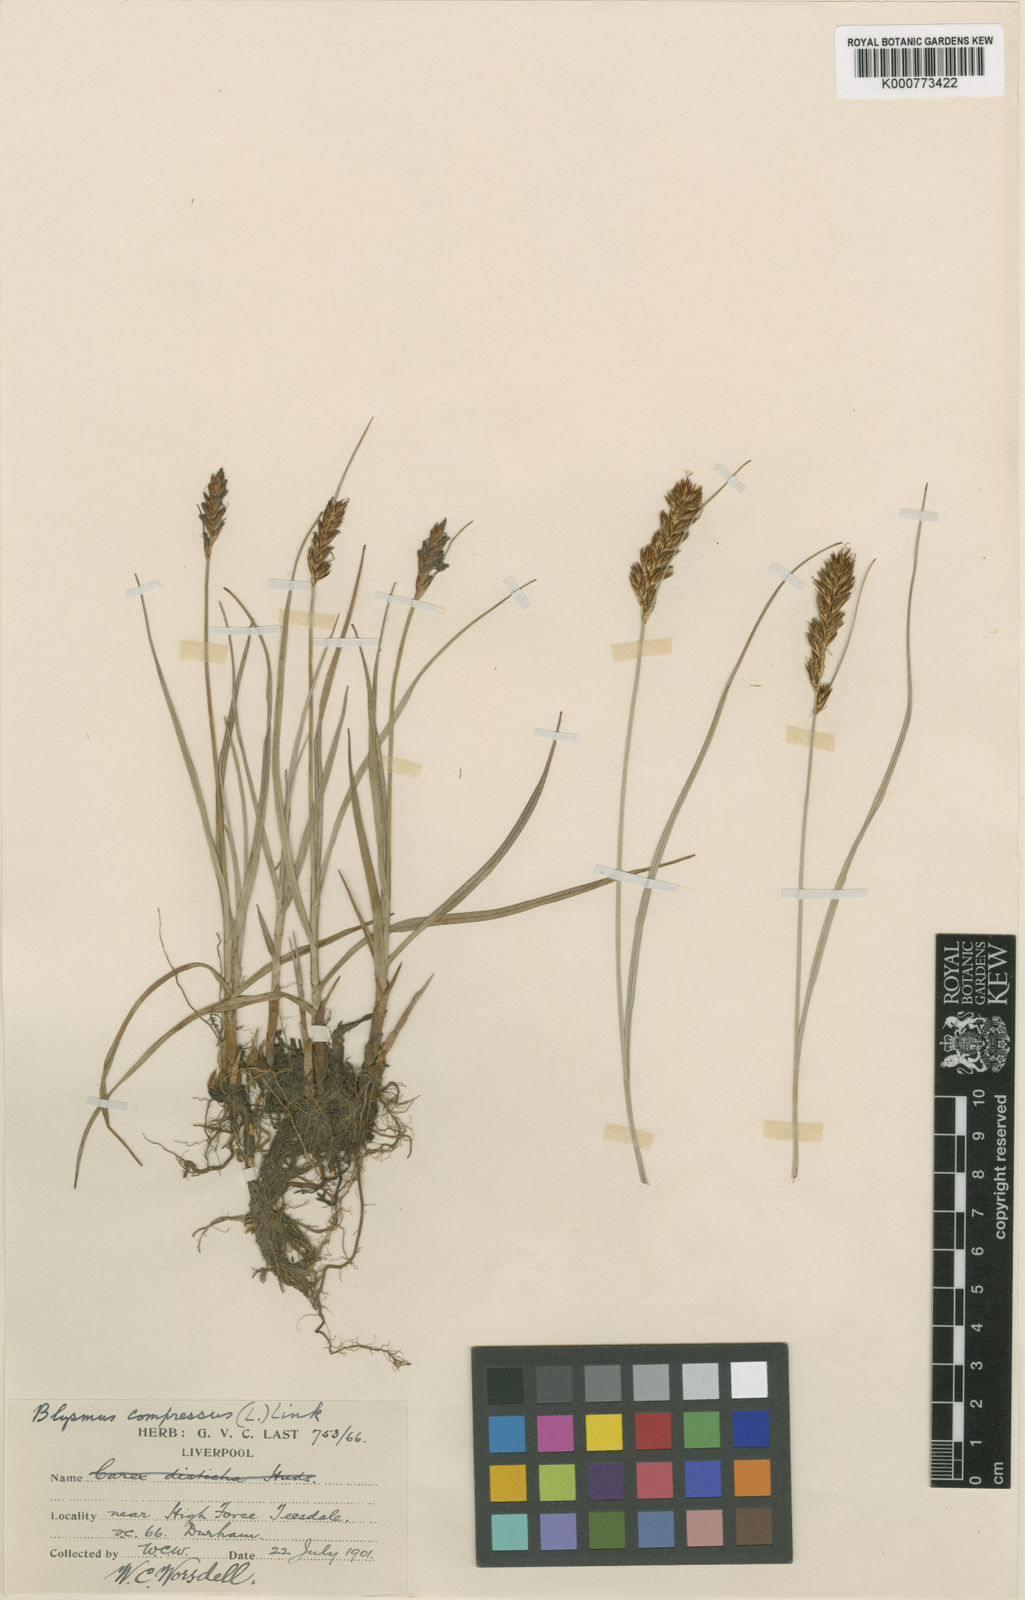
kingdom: Plantae
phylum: Tracheophyta
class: Liliopsida
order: Poales
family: Cyperaceae
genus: Blysmus
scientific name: Blysmus compressus
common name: Flat-sedge
